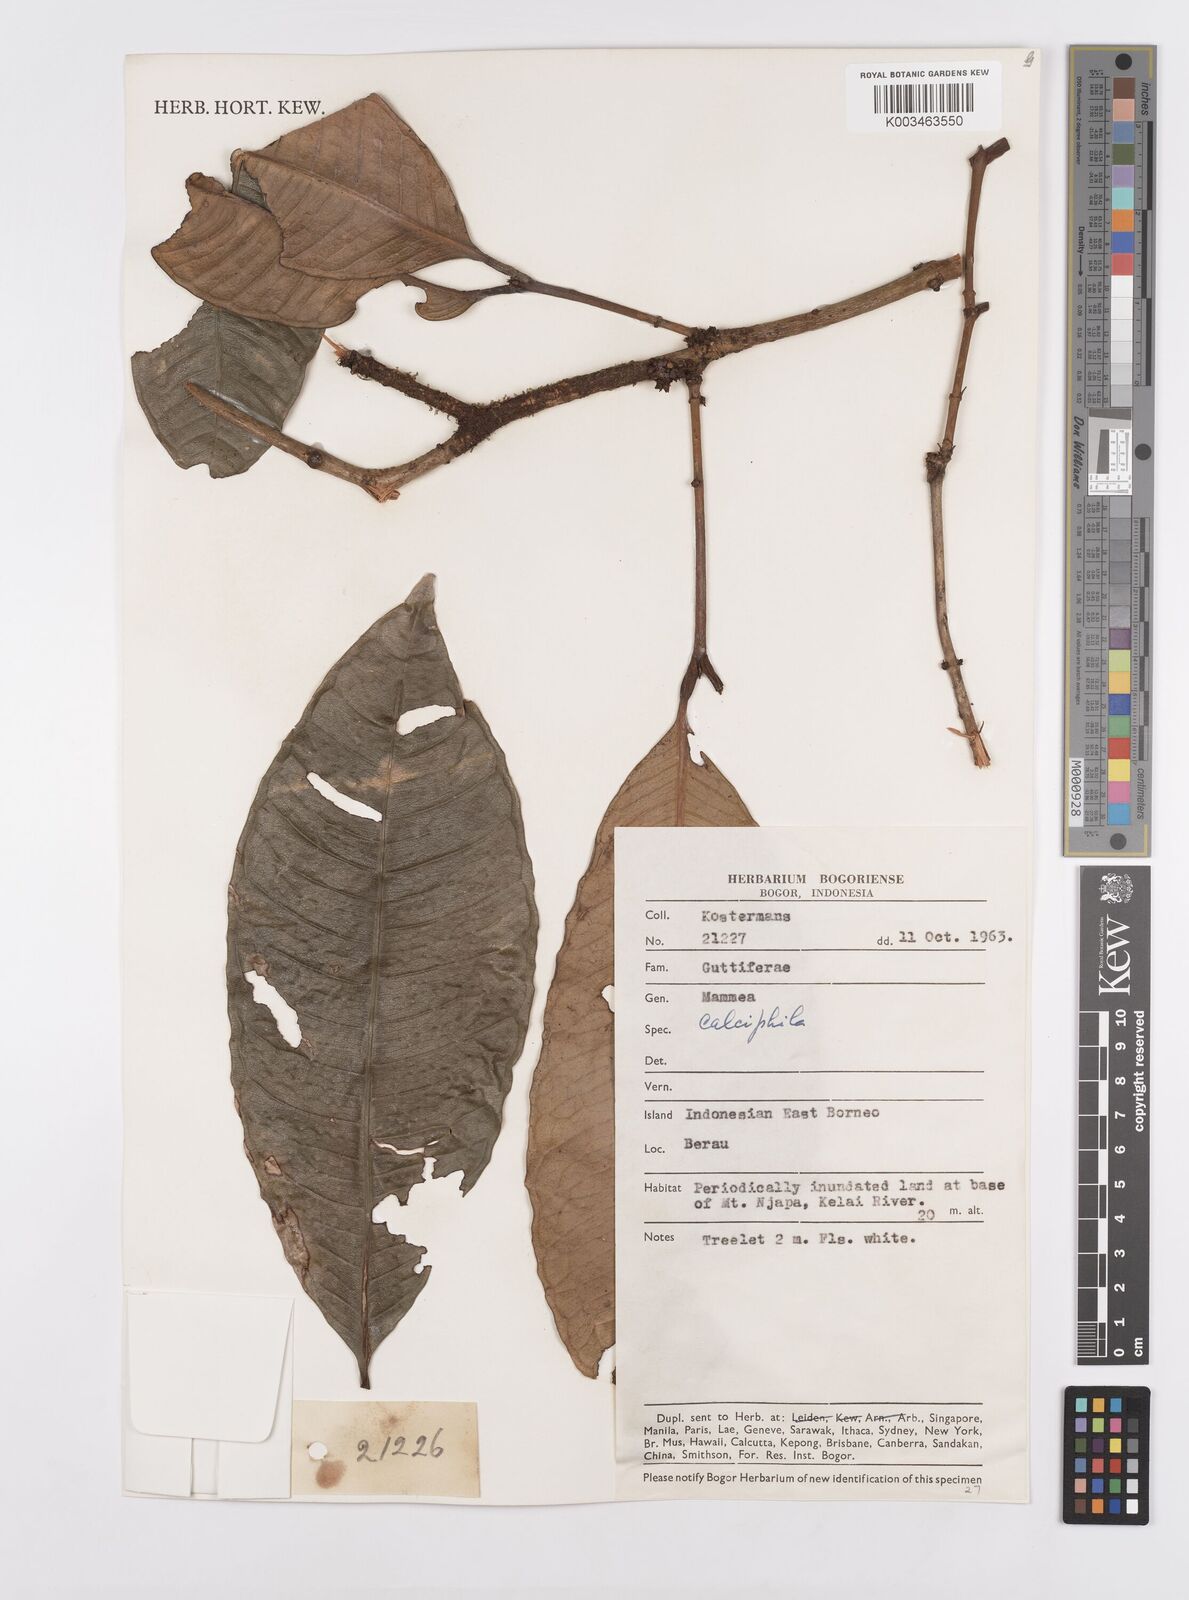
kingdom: Plantae
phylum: Tracheophyta
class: Magnoliopsida
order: Malpighiales
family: Calophyllaceae
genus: Mammea
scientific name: Mammea calciphila
